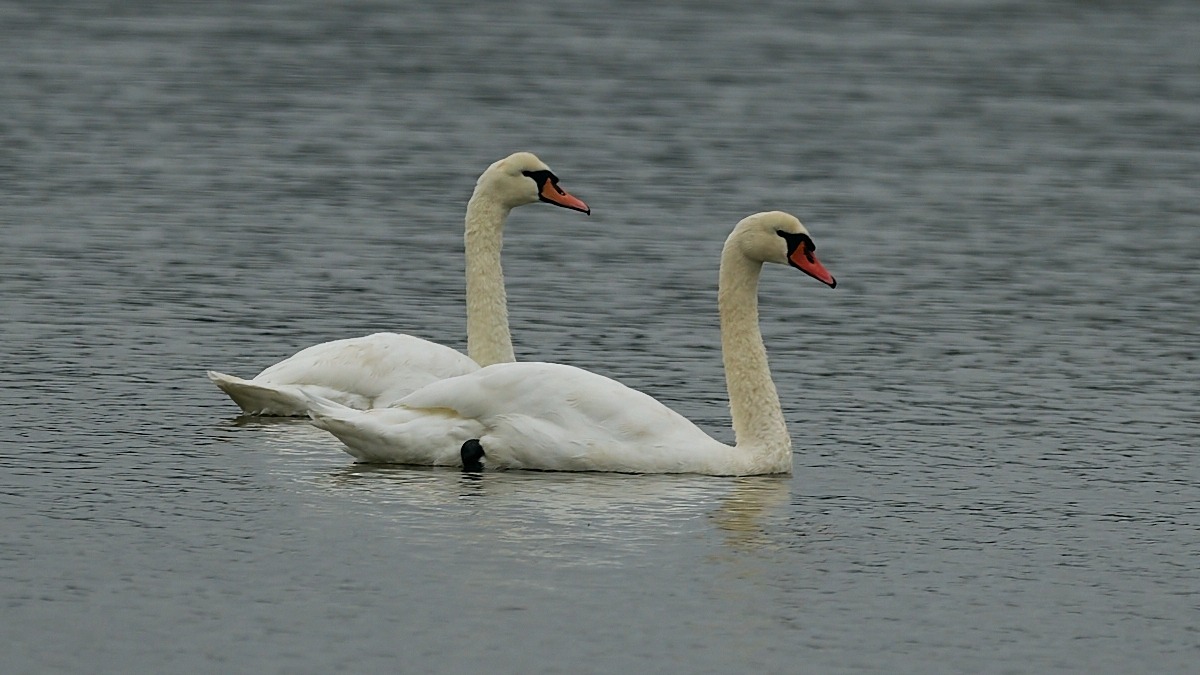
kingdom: Animalia
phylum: Chordata
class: Aves
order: Anseriformes
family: Anatidae
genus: Cygnus
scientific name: Cygnus olor
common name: Knopsvane
